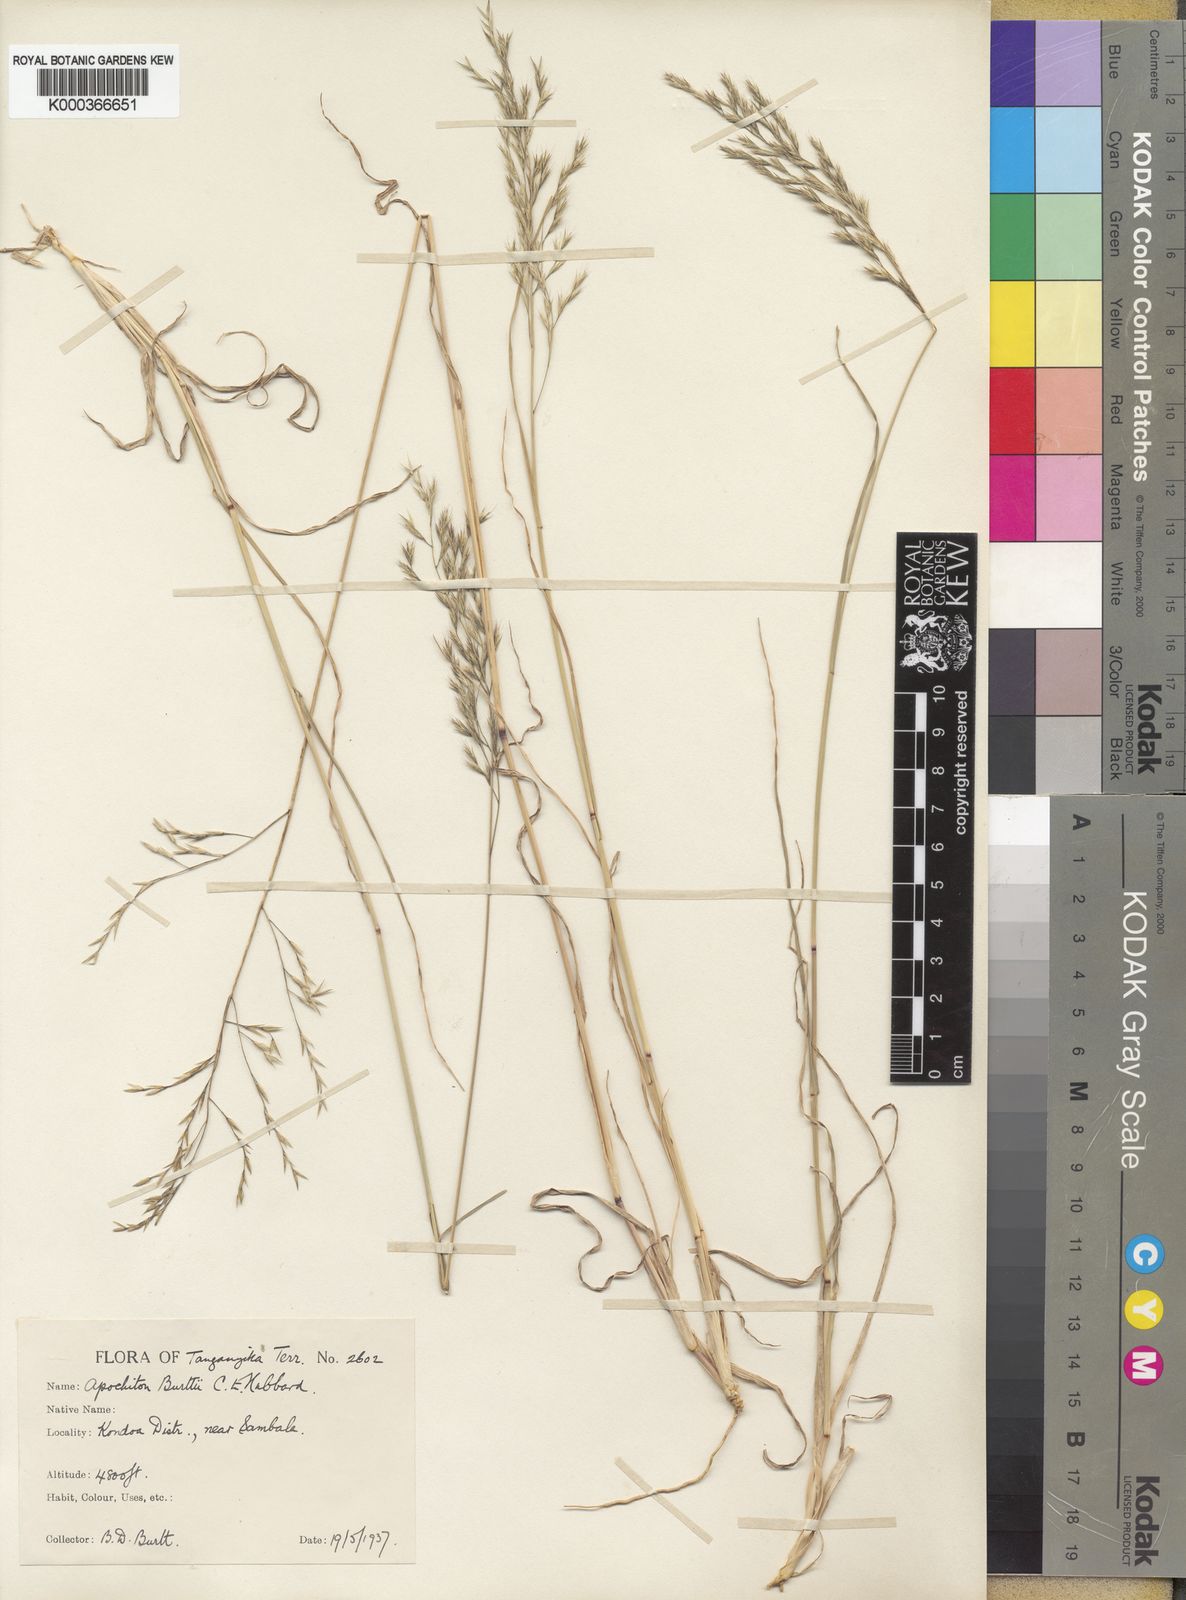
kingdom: Plantae
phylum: Tracheophyta
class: Liliopsida
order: Poales
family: Poaceae
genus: Apochiton
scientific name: Apochiton burttii
